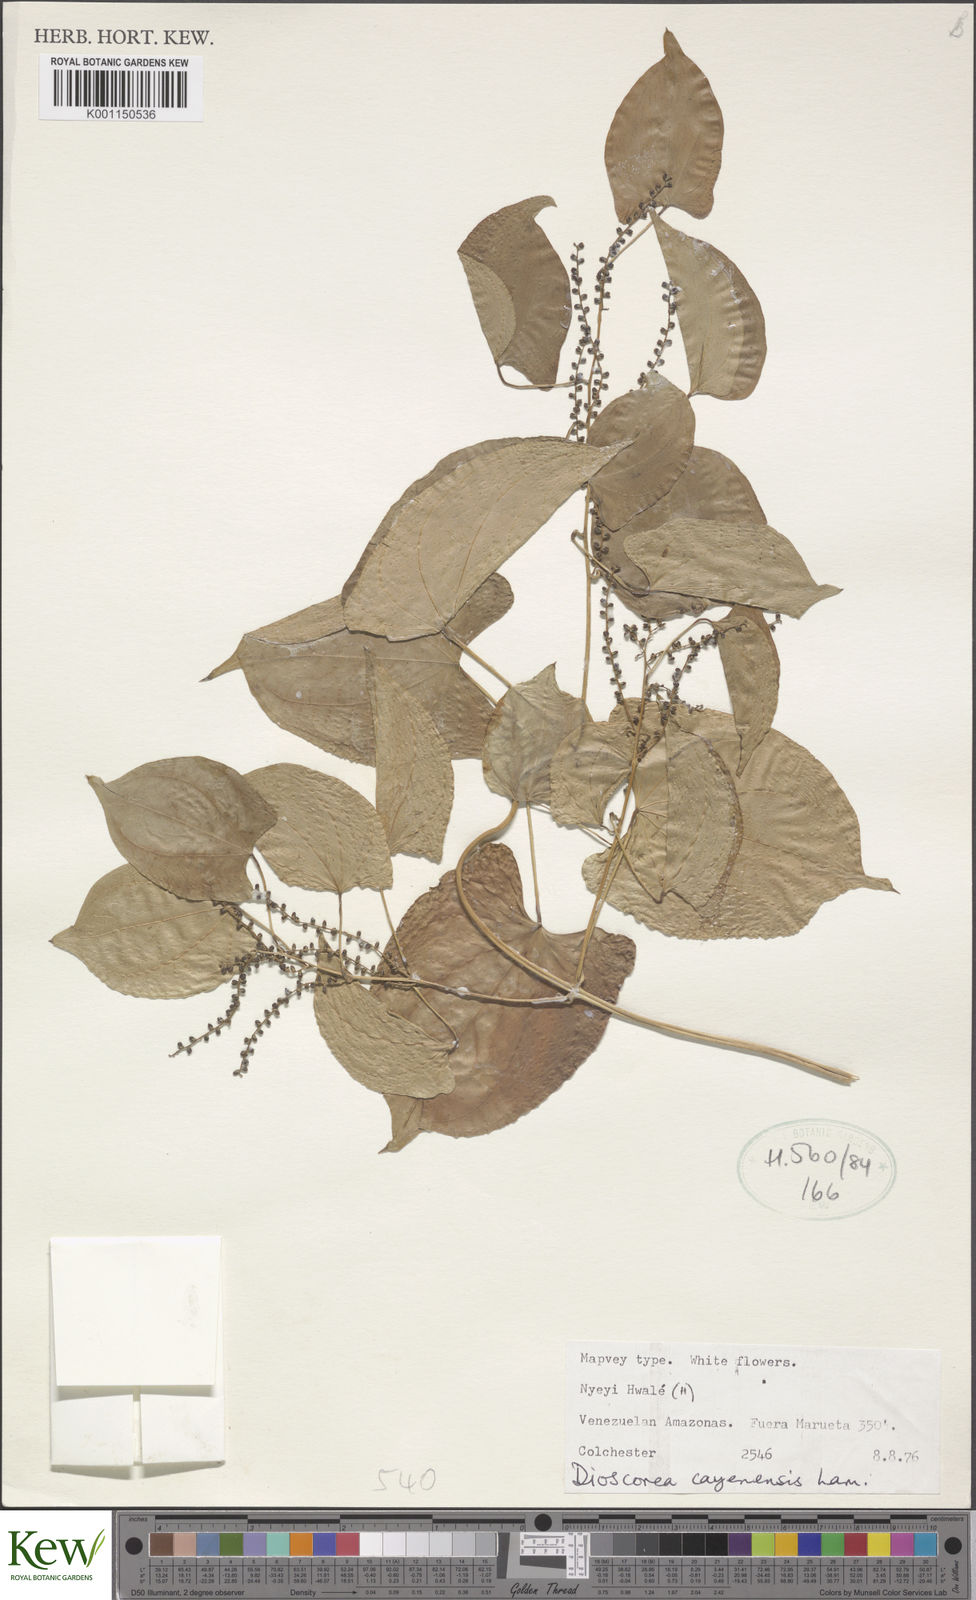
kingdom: Plantae
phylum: Tracheophyta
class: Liliopsida
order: Dioscoreales
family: Dioscoreaceae
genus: Dioscorea
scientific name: Dioscorea cayenensis
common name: Attoto yam
